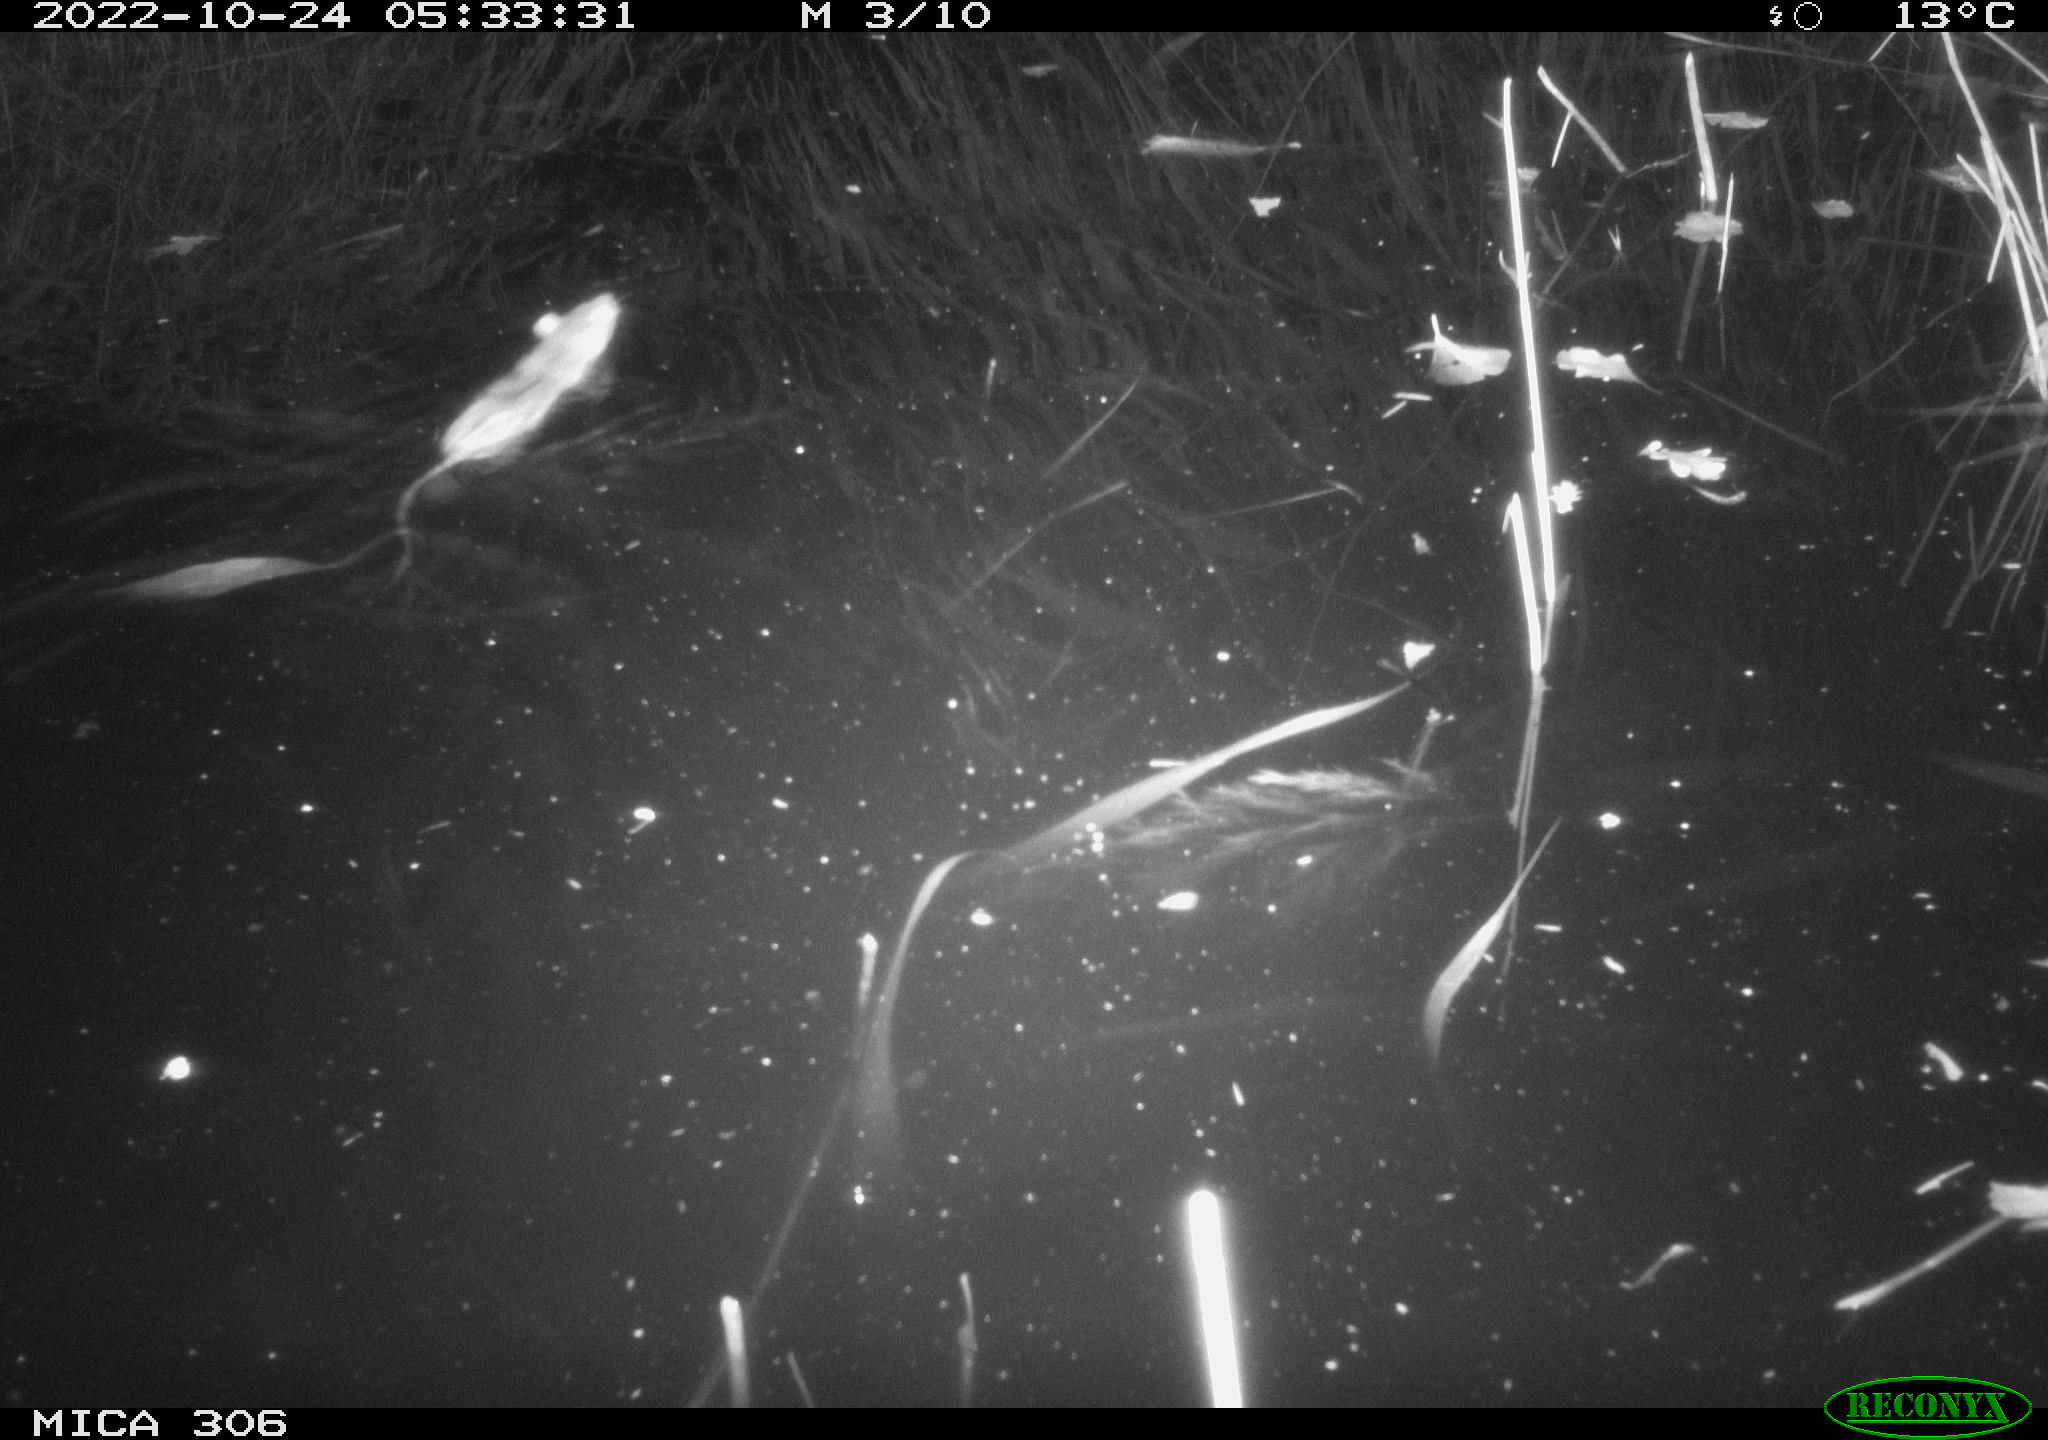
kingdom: Animalia
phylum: Chordata
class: Mammalia
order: Rodentia
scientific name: Rodentia
